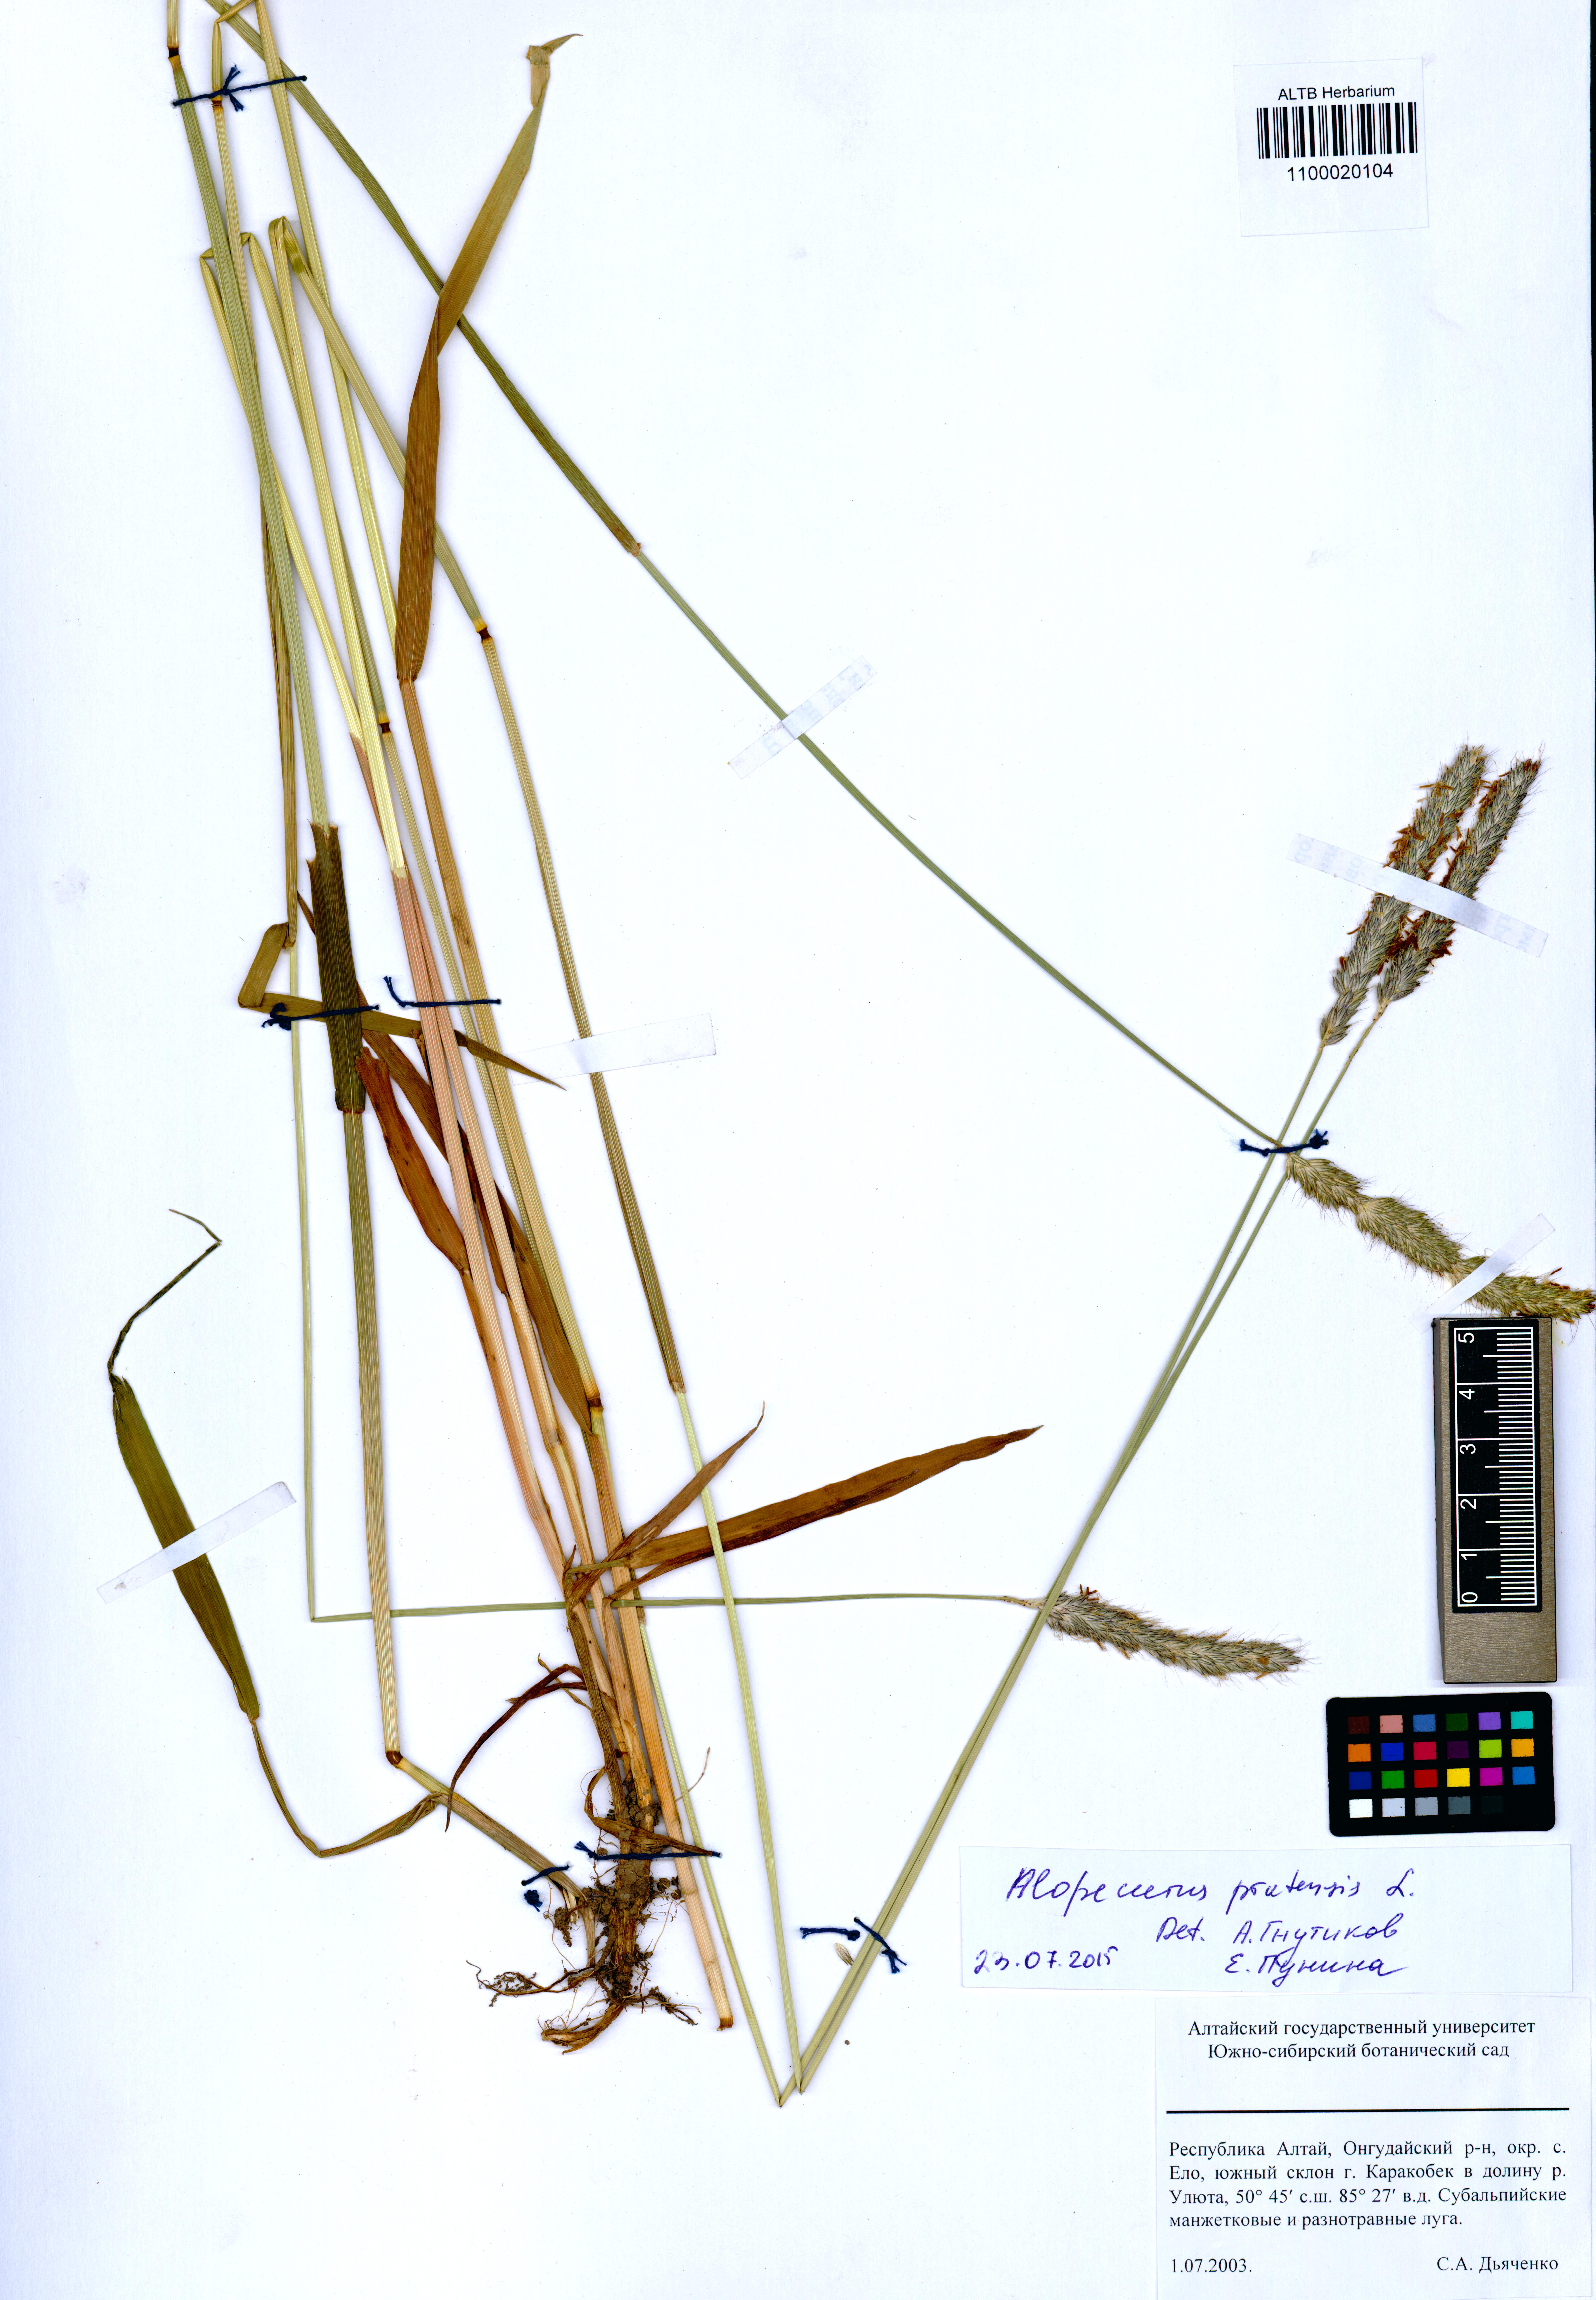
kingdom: Plantae
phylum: Tracheophyta
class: Liliopsida
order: Poales
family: Poaceae
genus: Alopecurus
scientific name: Alopecurus pratensis
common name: Meadow foxtail
